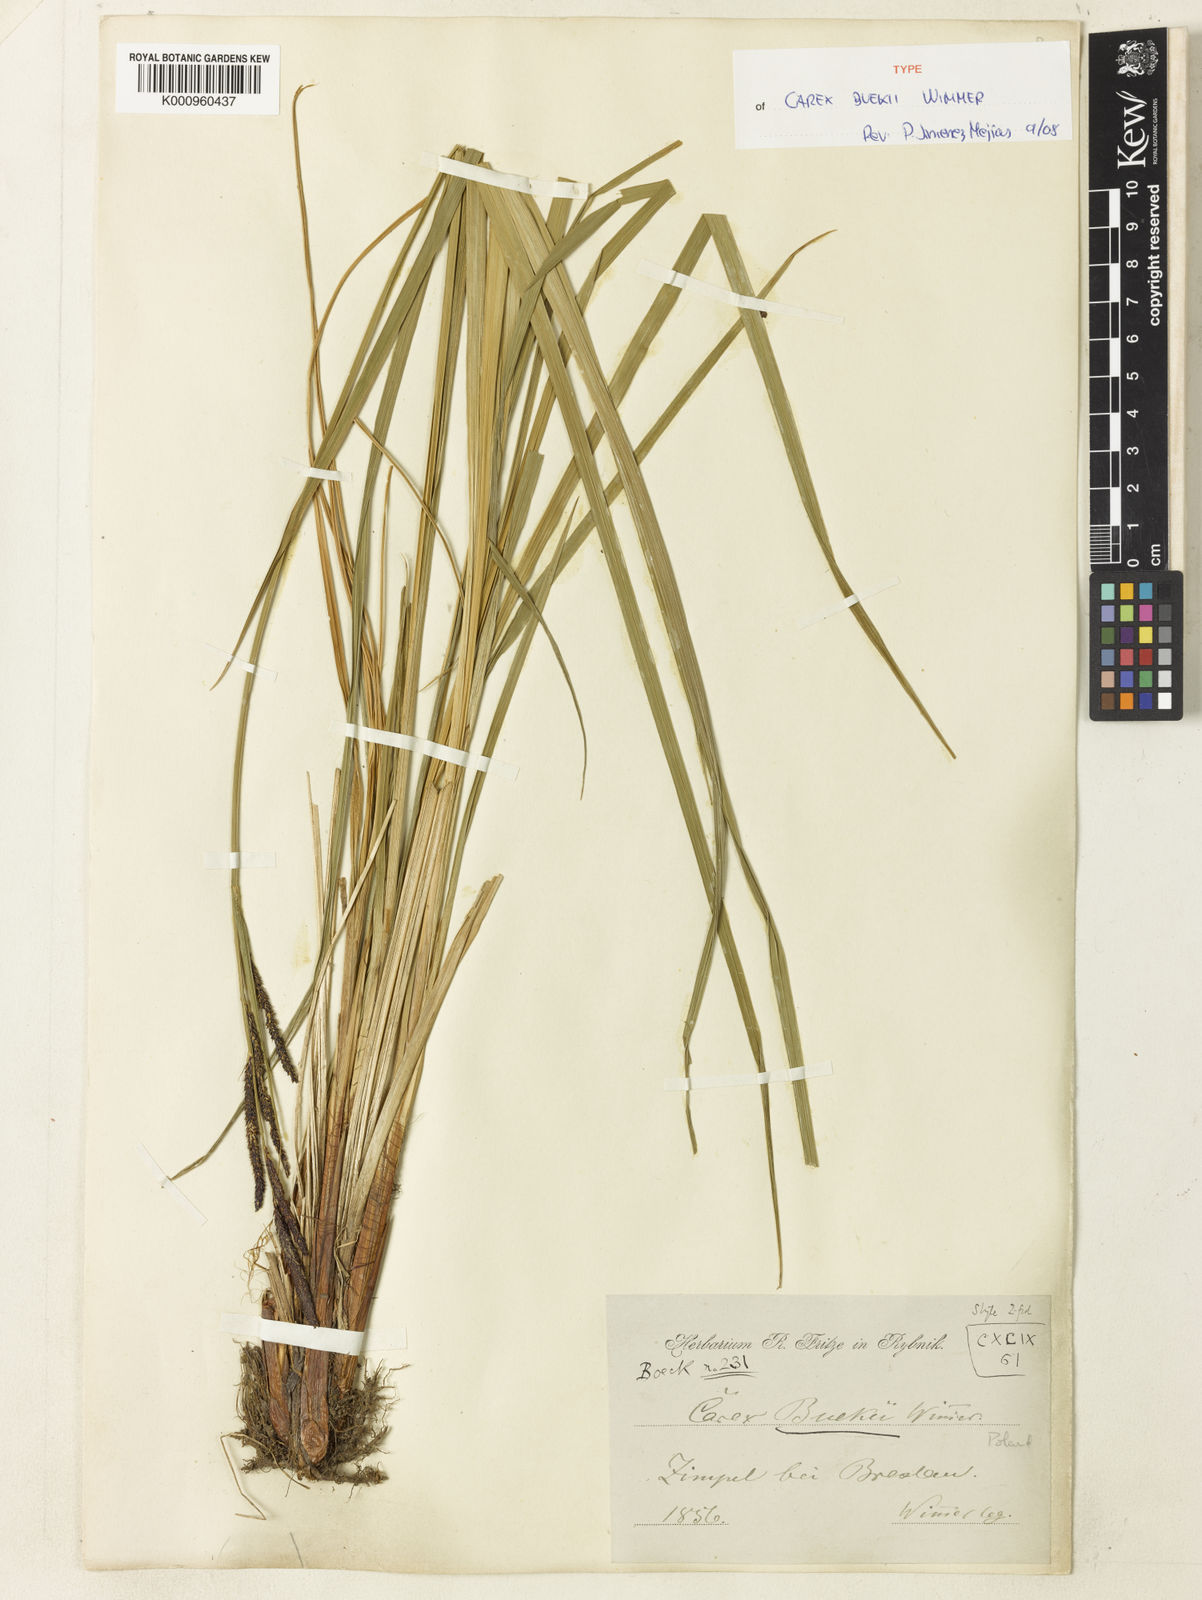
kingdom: Plantae
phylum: Tracheophyta
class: Liliopsida
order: Poales
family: Cyperaceae
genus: Carex
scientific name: Carex buekii
